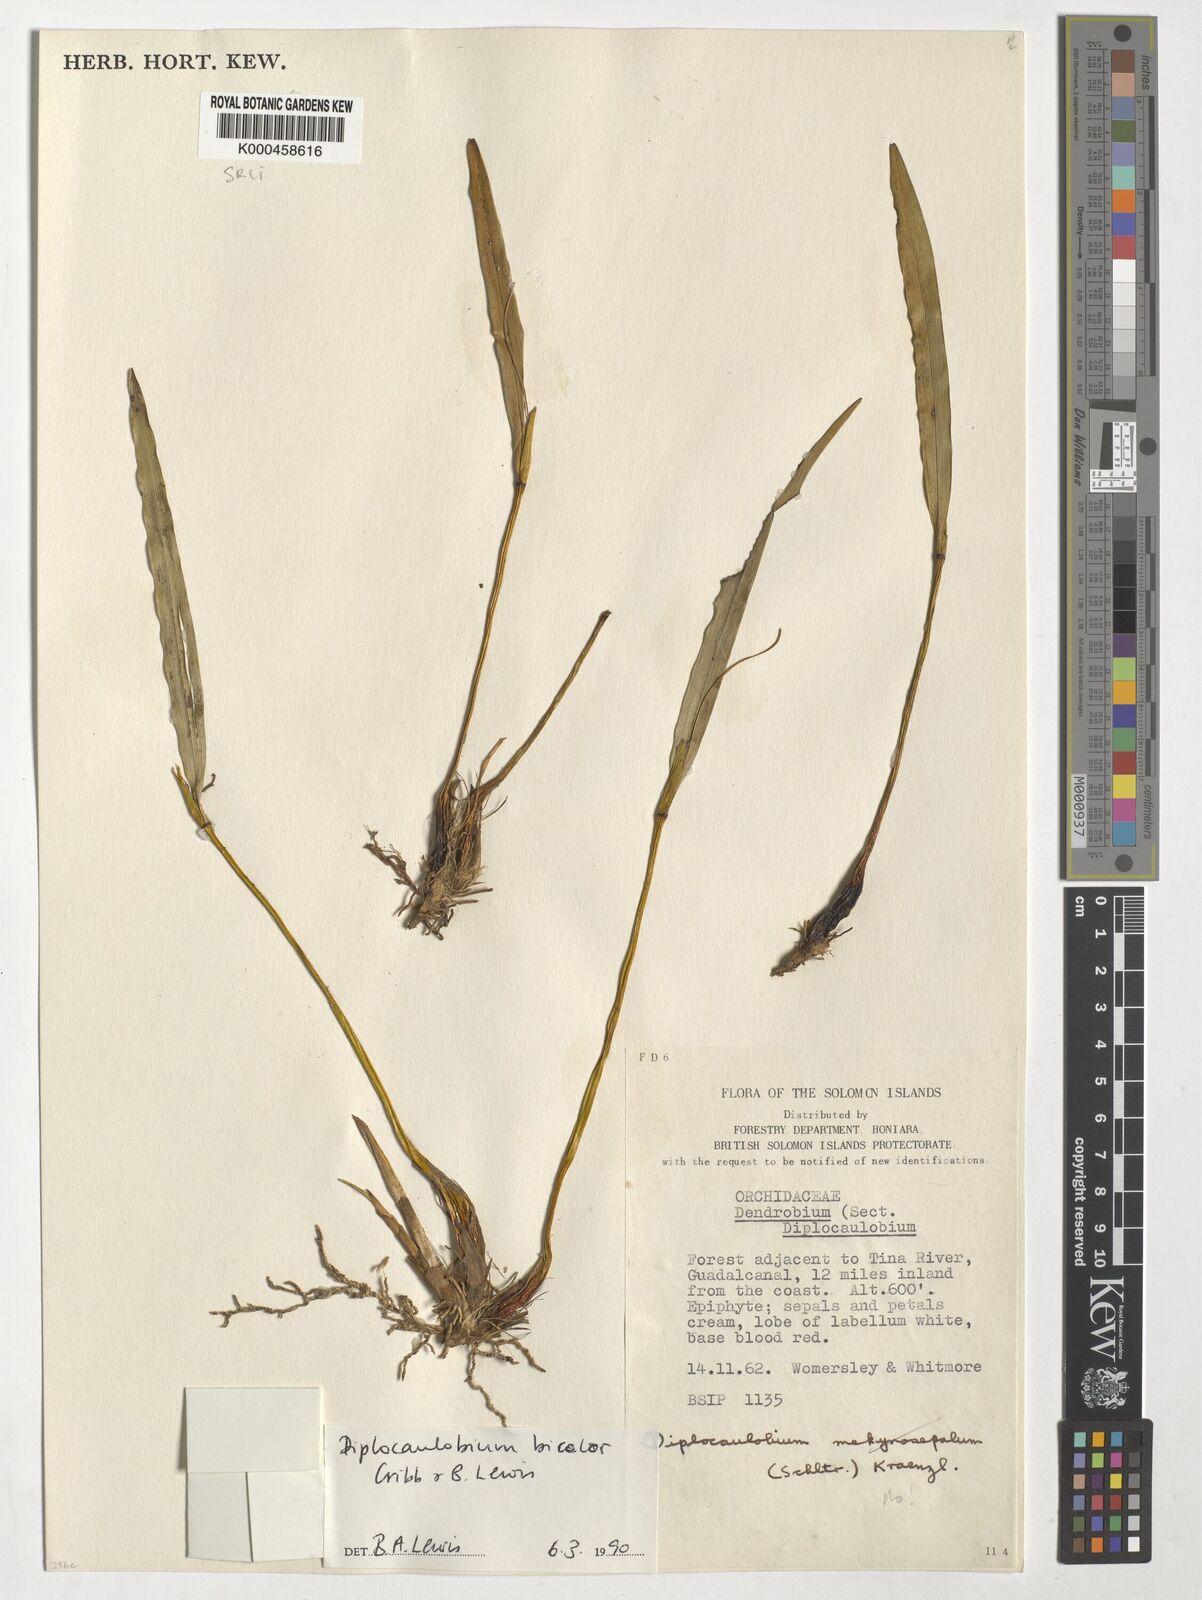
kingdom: Plantae
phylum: Tracheophyta
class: Liliopsida
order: Asparagales
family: Orchidaceae
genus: Dendrobium
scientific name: Dendrobium lewisiae
